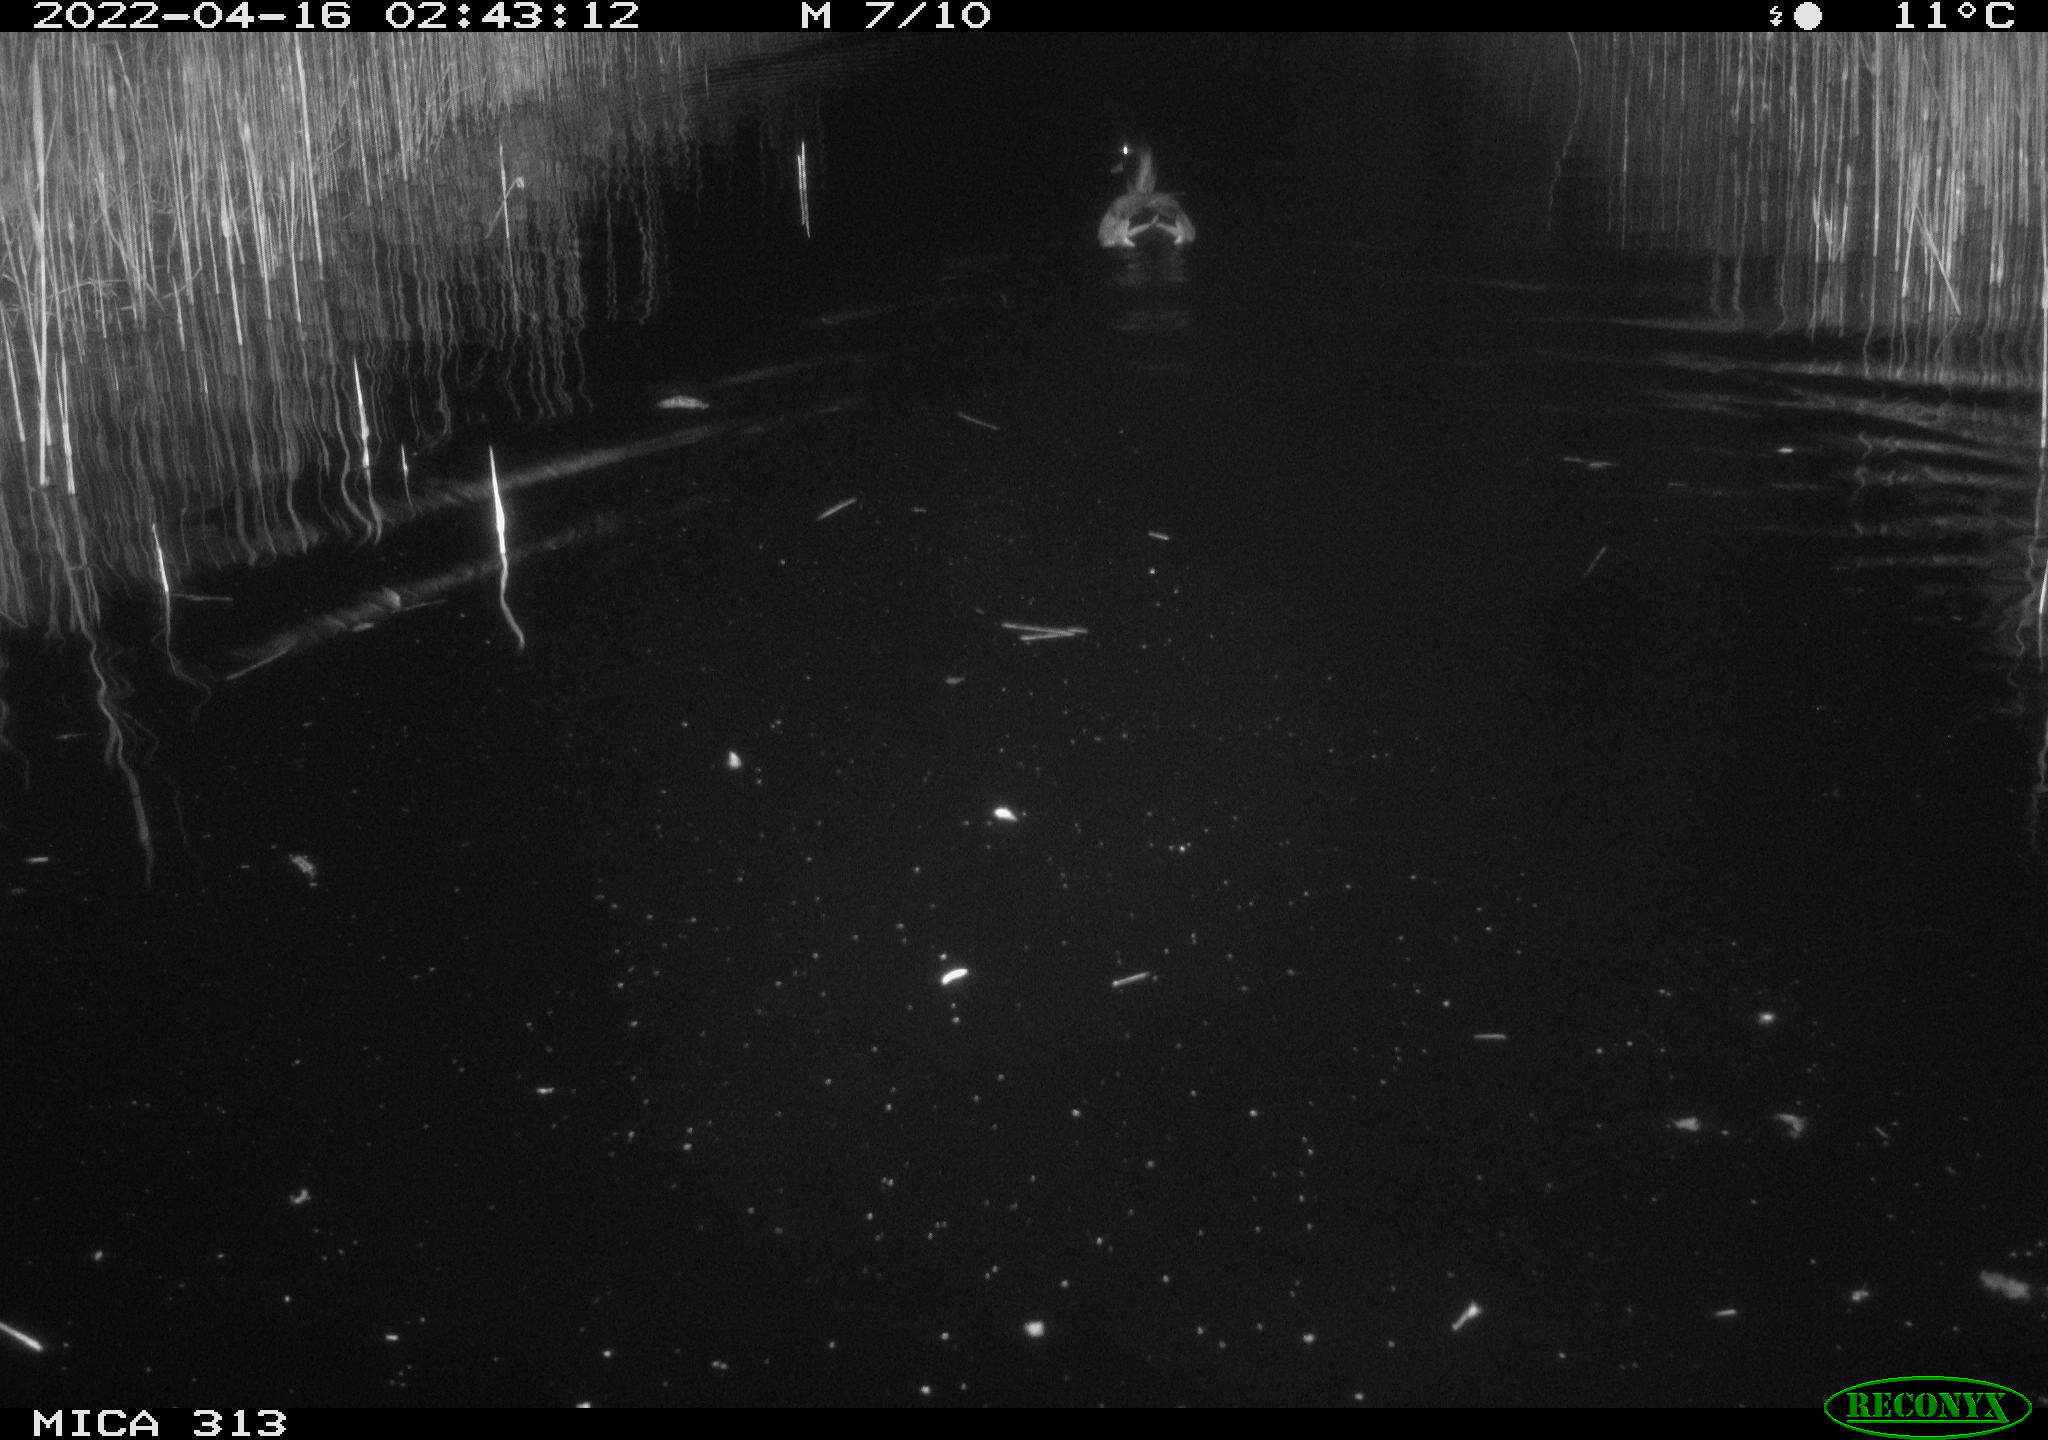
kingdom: Animalia
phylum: Chordata
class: Aves
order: Anseriformes
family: Anatidae
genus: Anas
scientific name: Anas platyrhynchos
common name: Mallard
